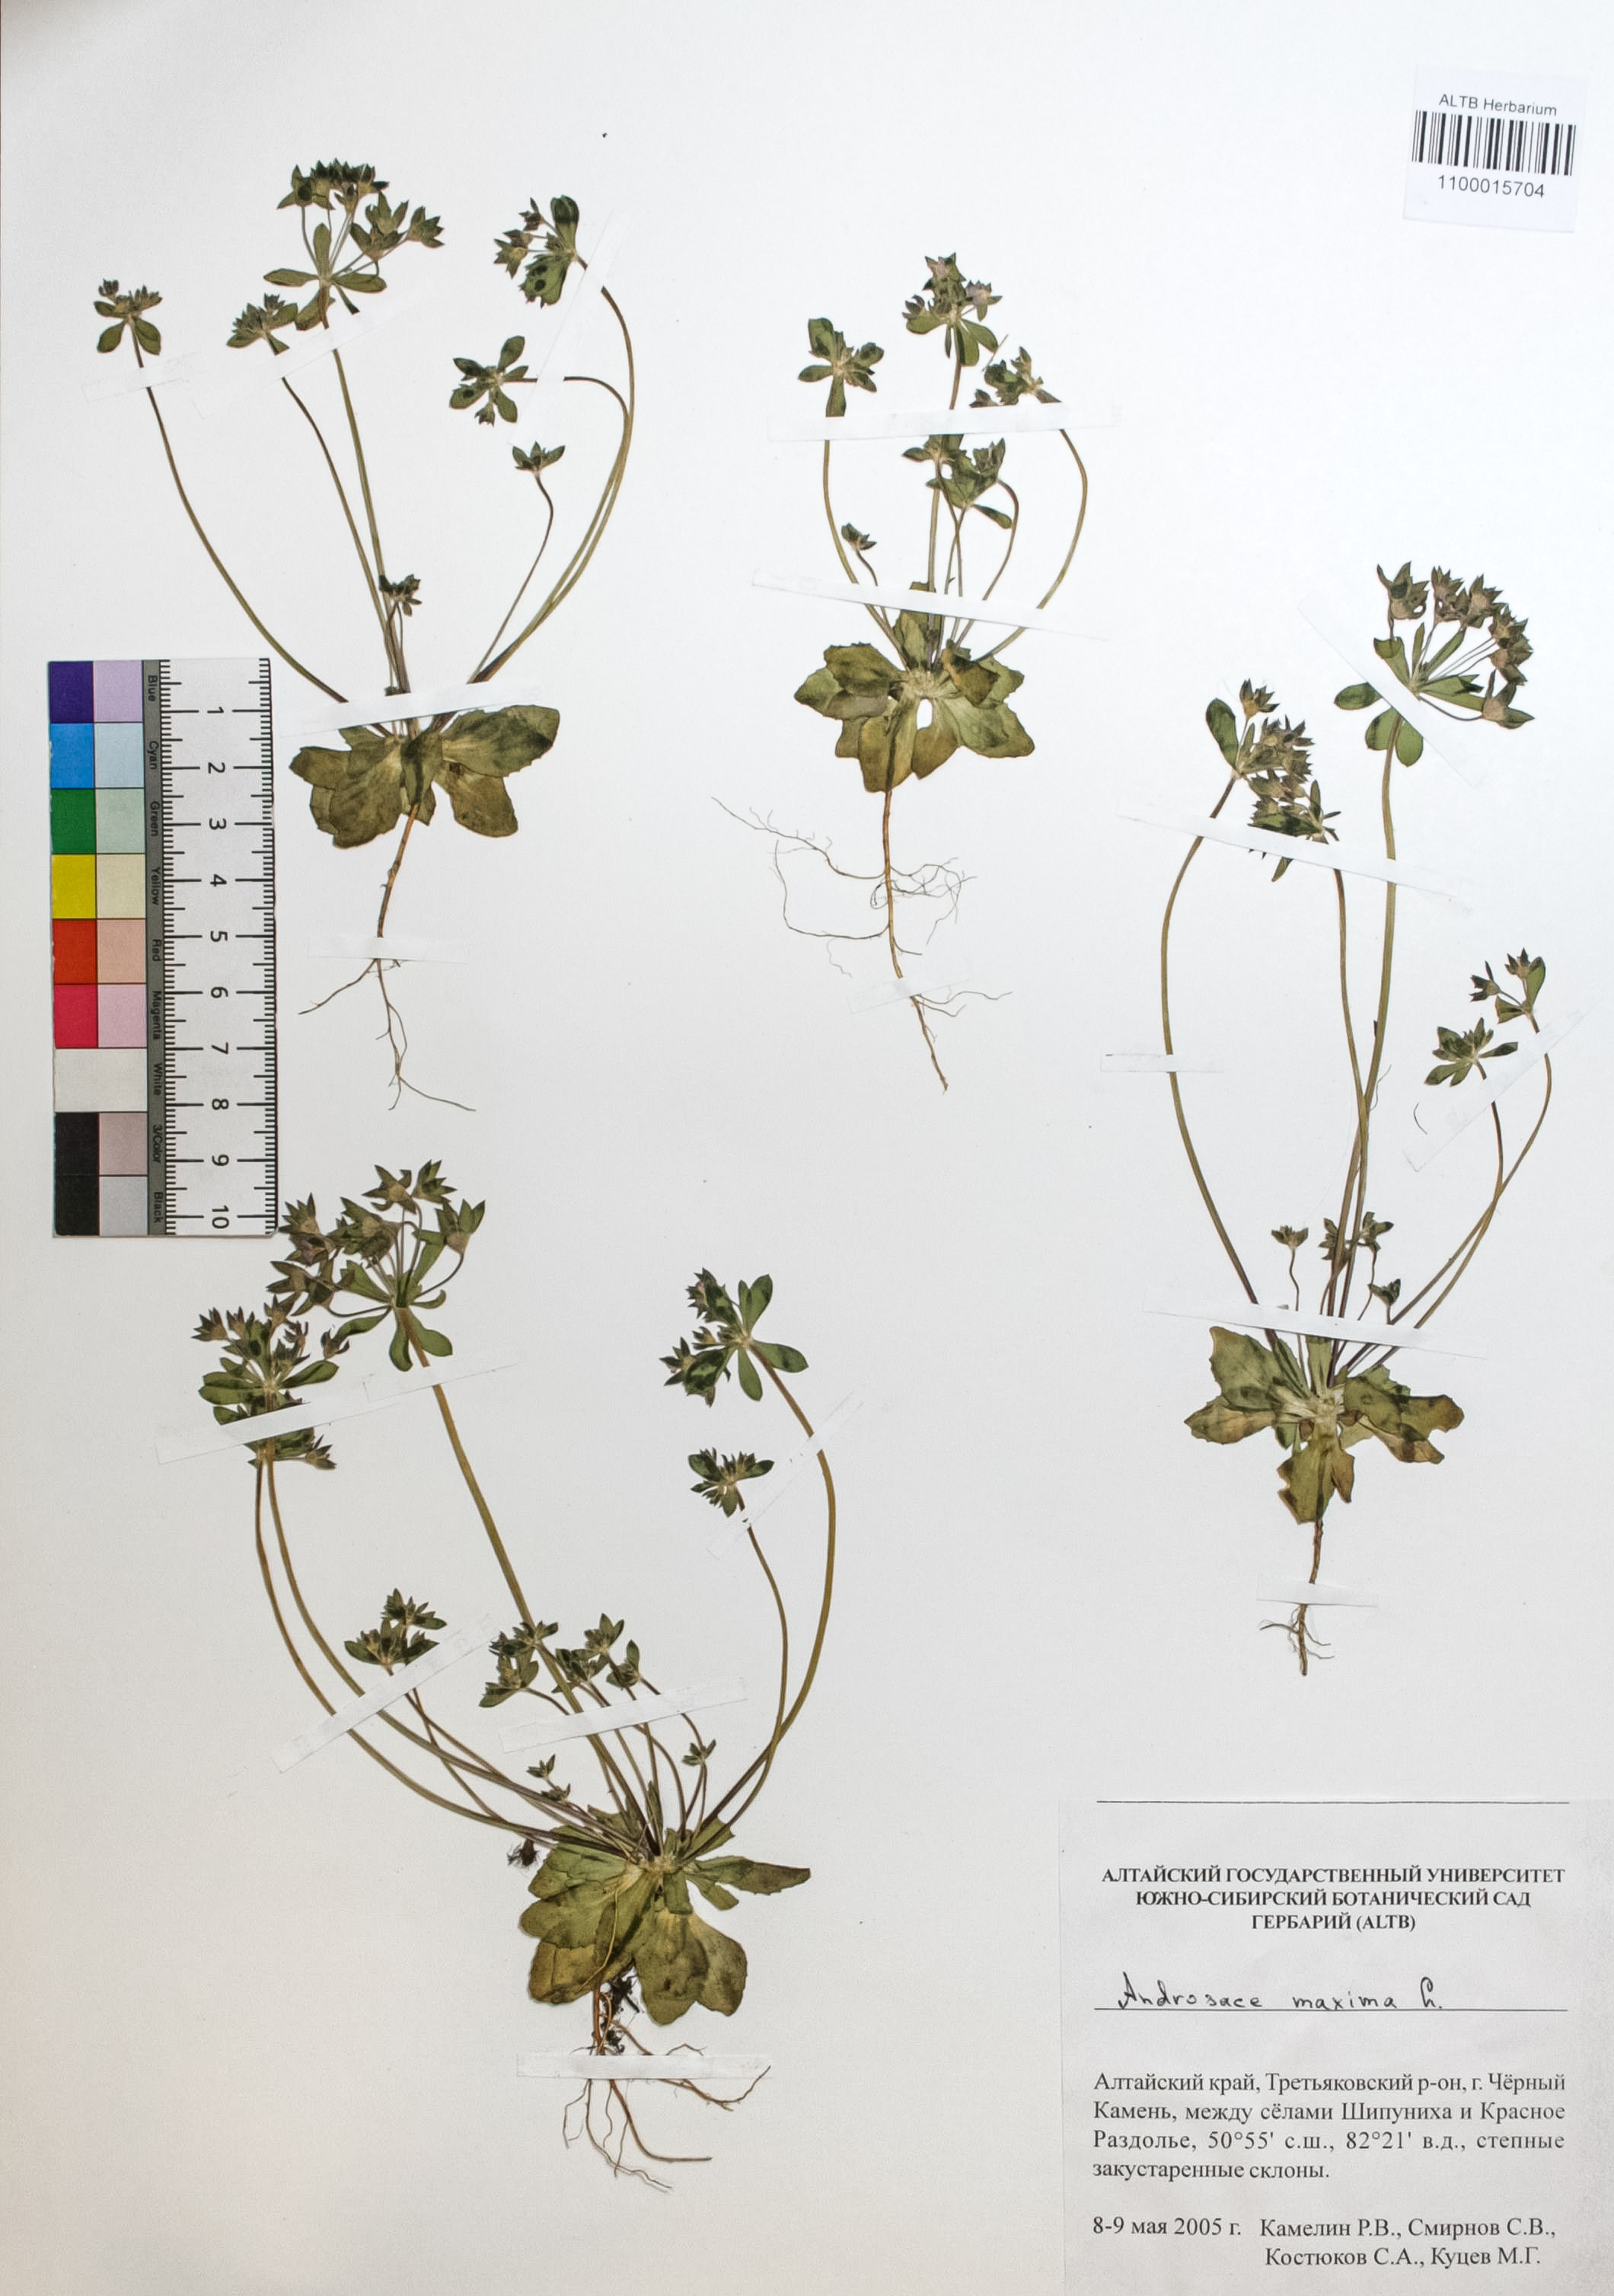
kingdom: Plantae
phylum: Tracheophyta
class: Magnoliopsida
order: Ericales
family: Primulaceae
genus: Androsace
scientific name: Androsace maxima
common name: Annual androsace
